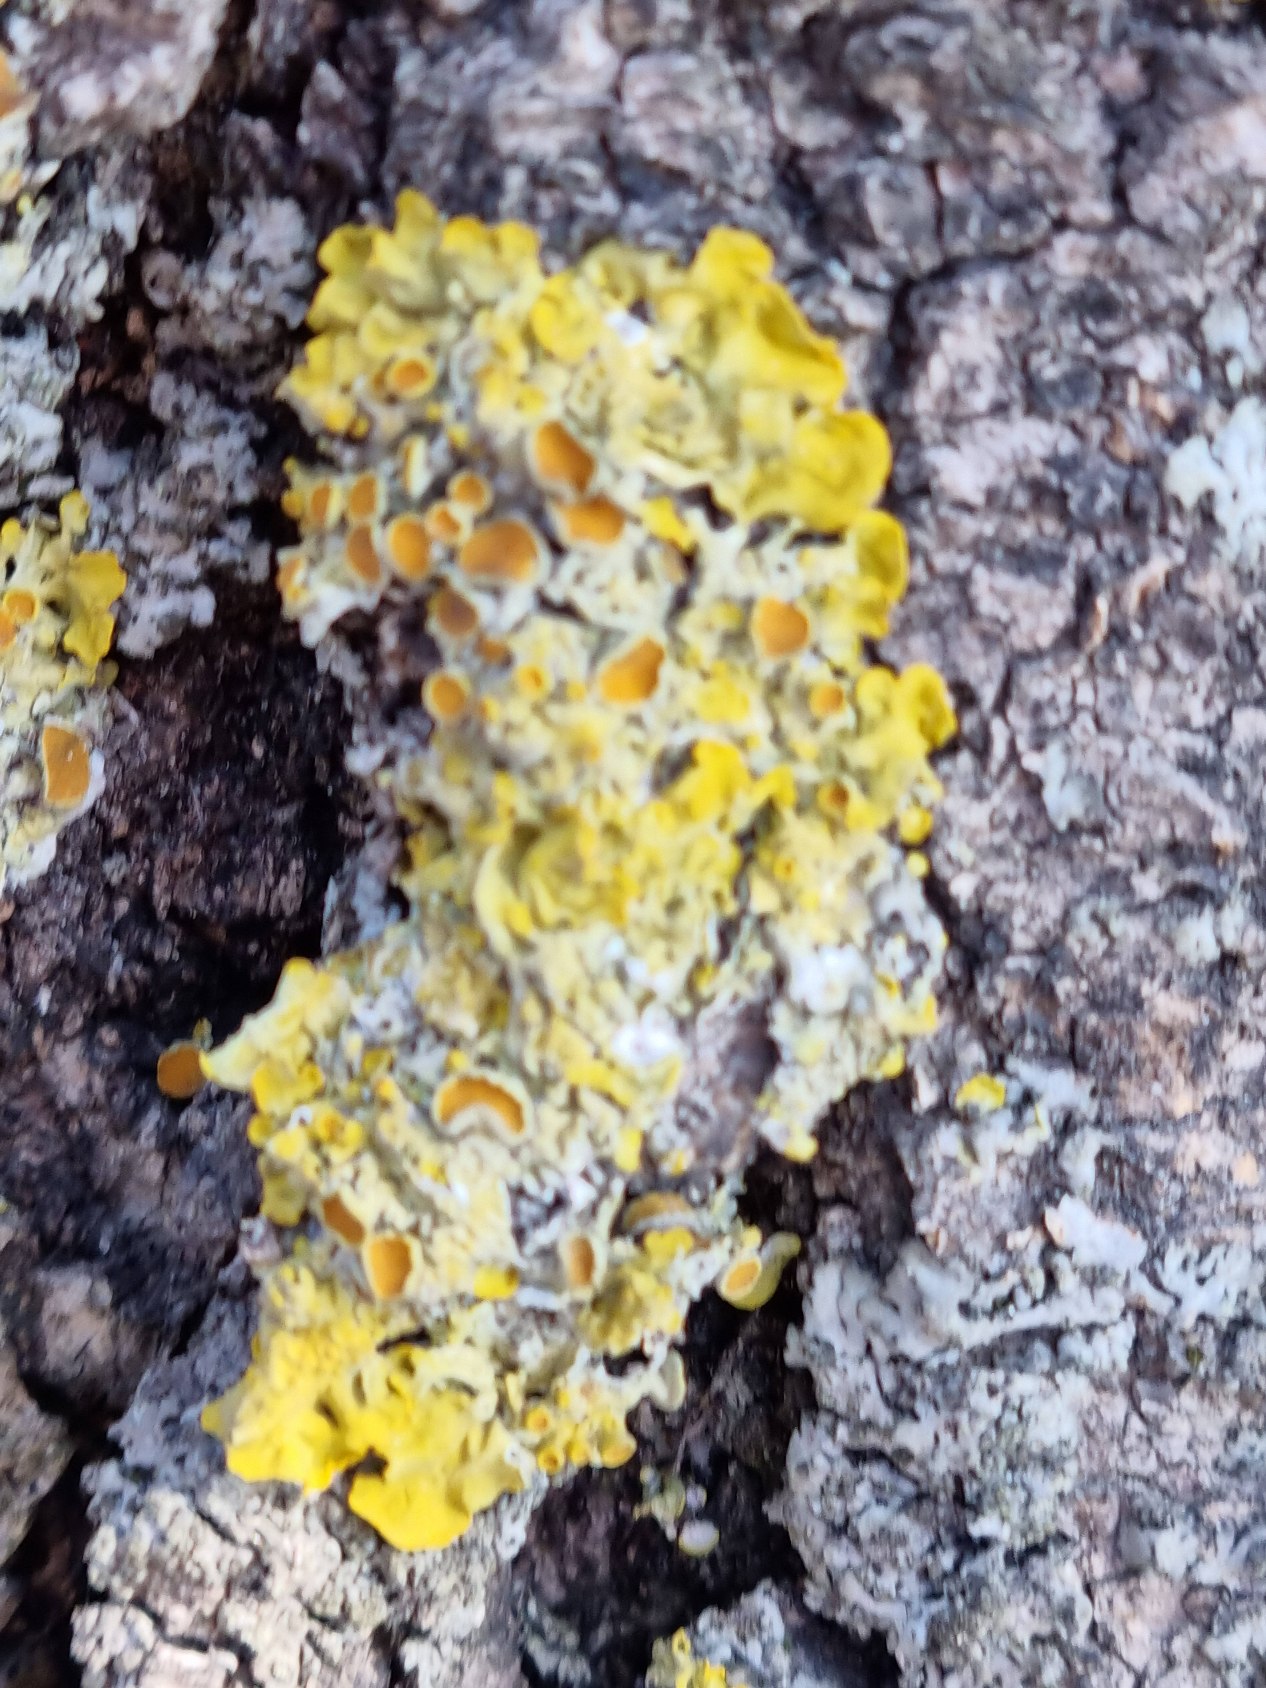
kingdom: Fungi
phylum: Ascomycota
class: Lecanoromycetes
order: Teloschistales
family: Teloschistaceae
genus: Xanthoria
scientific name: Xanthoria parietina
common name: Almindelig væggelav
